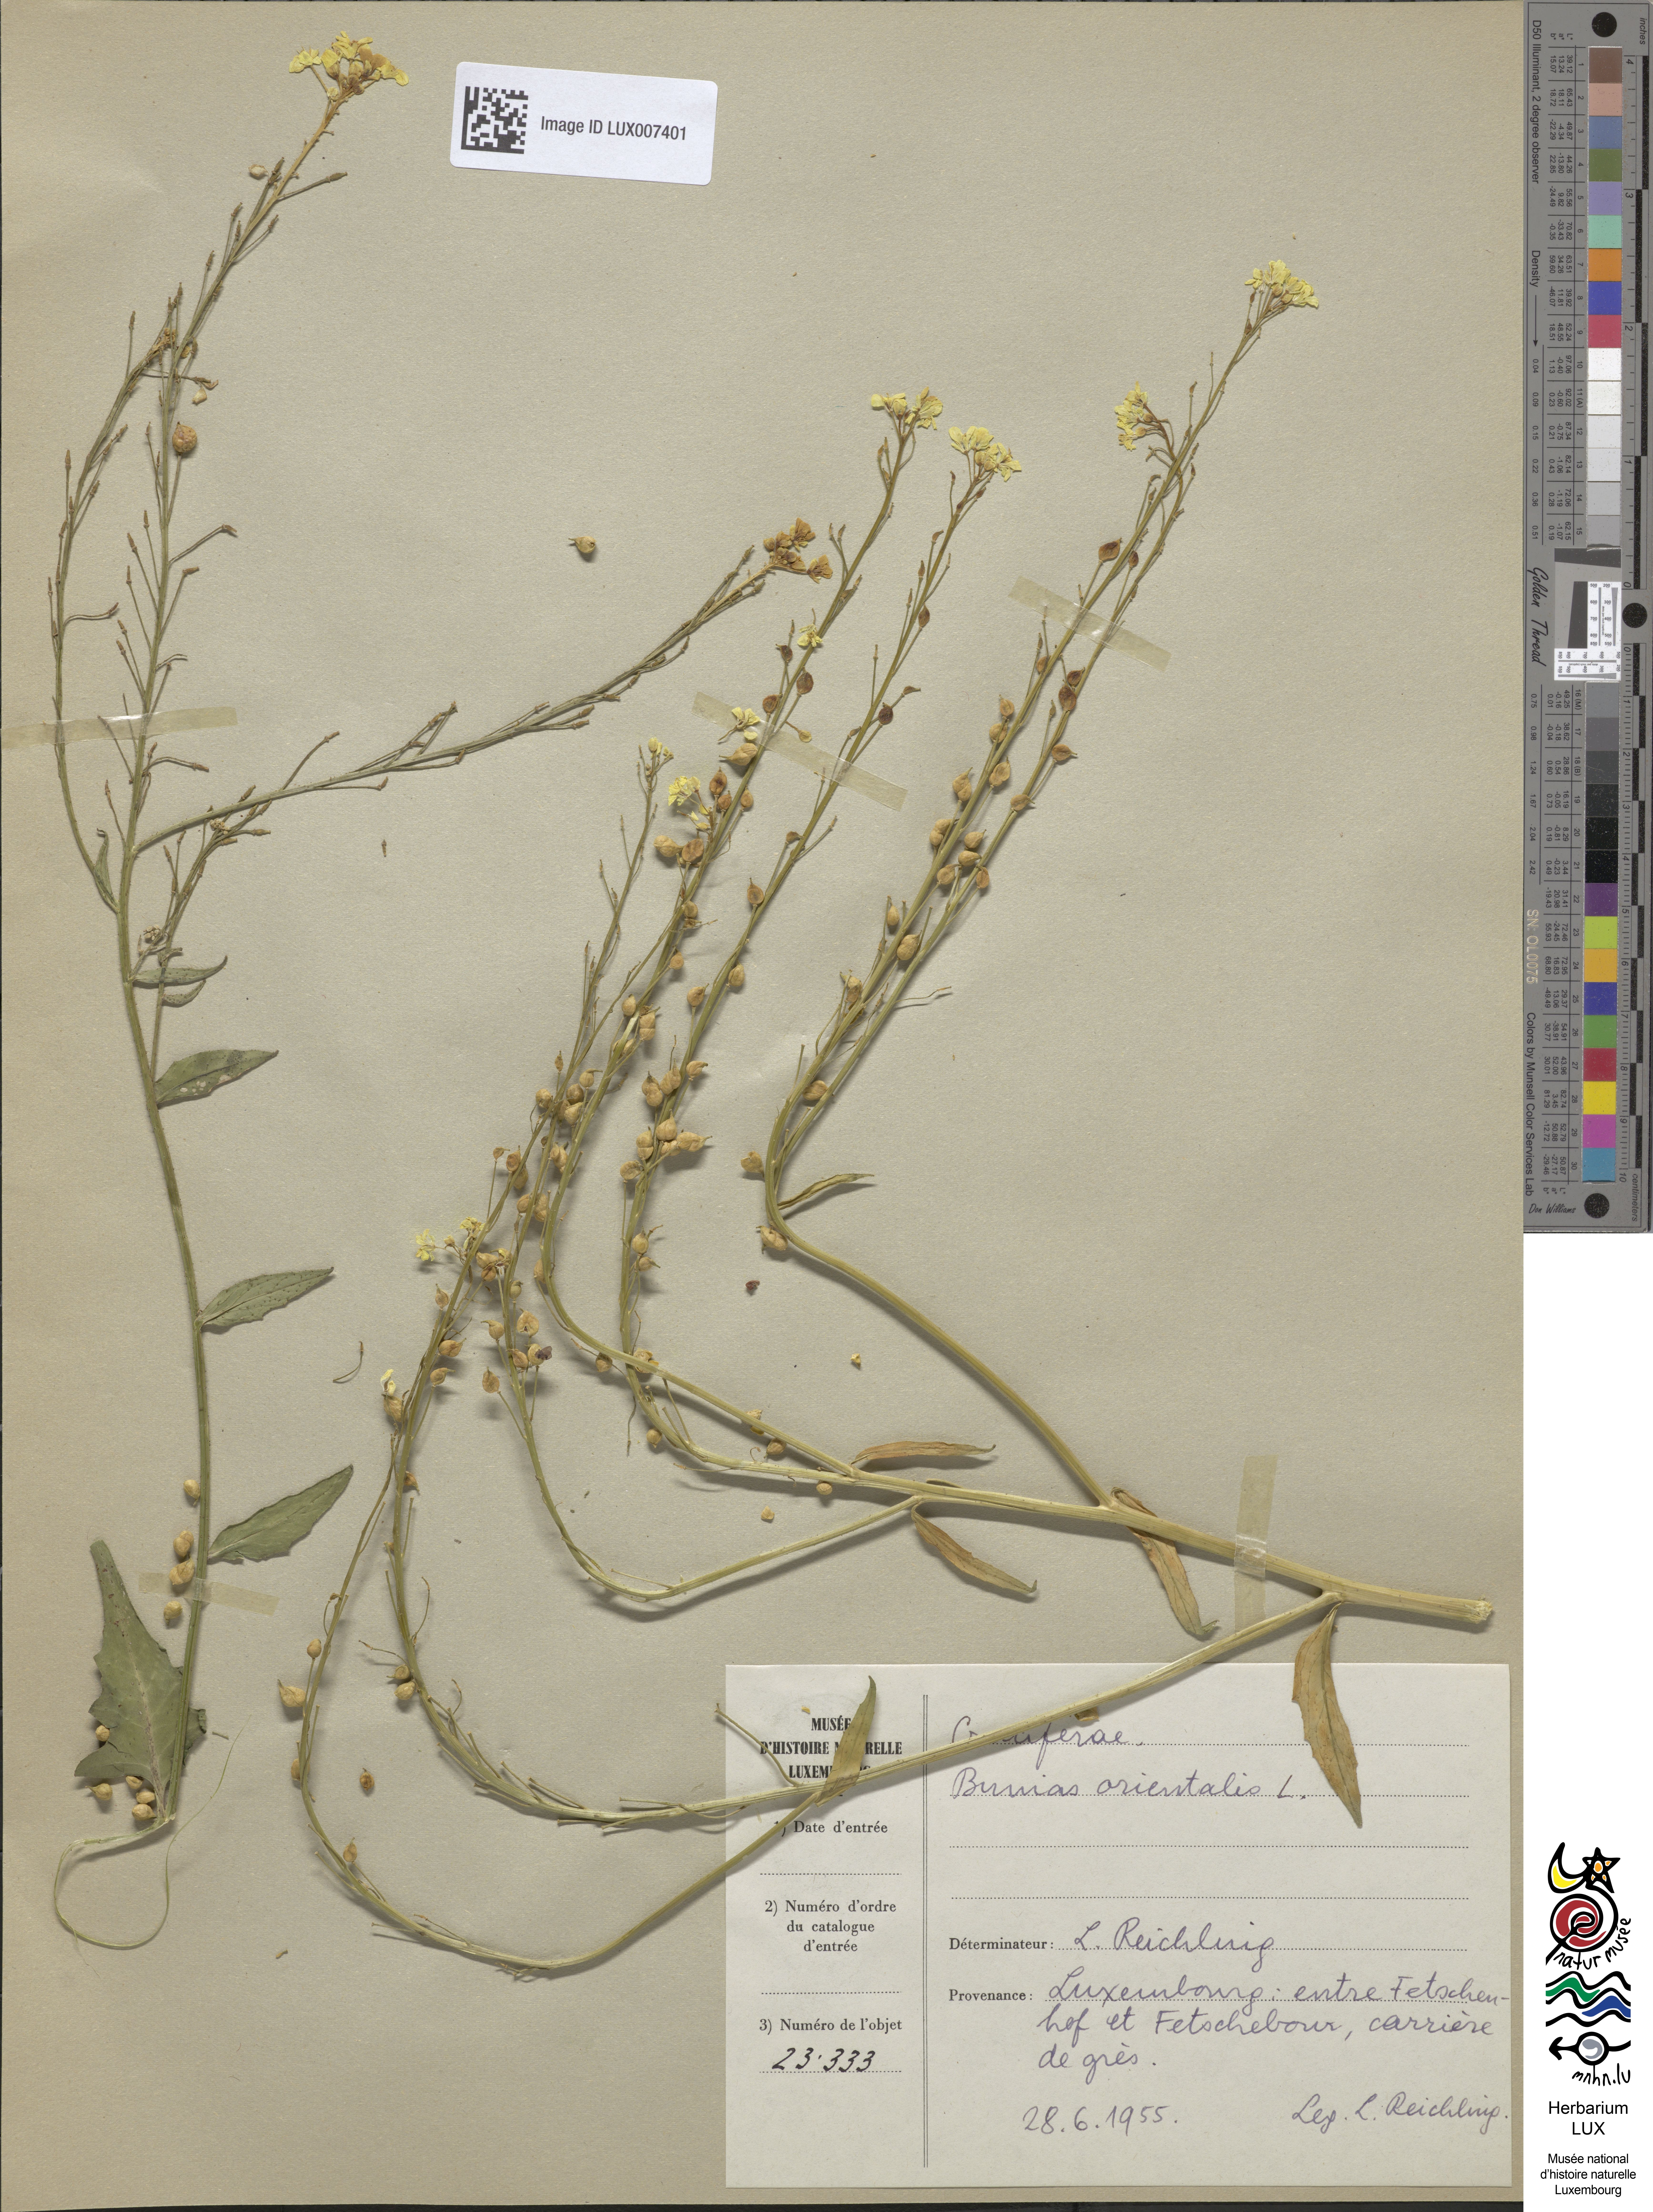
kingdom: Plantae
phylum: Tracheophyta
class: Magnoliopsida
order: Brassicales
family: Brassicaceae
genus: Bunias
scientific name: Bunias orientalis
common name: Warty-cabbage
